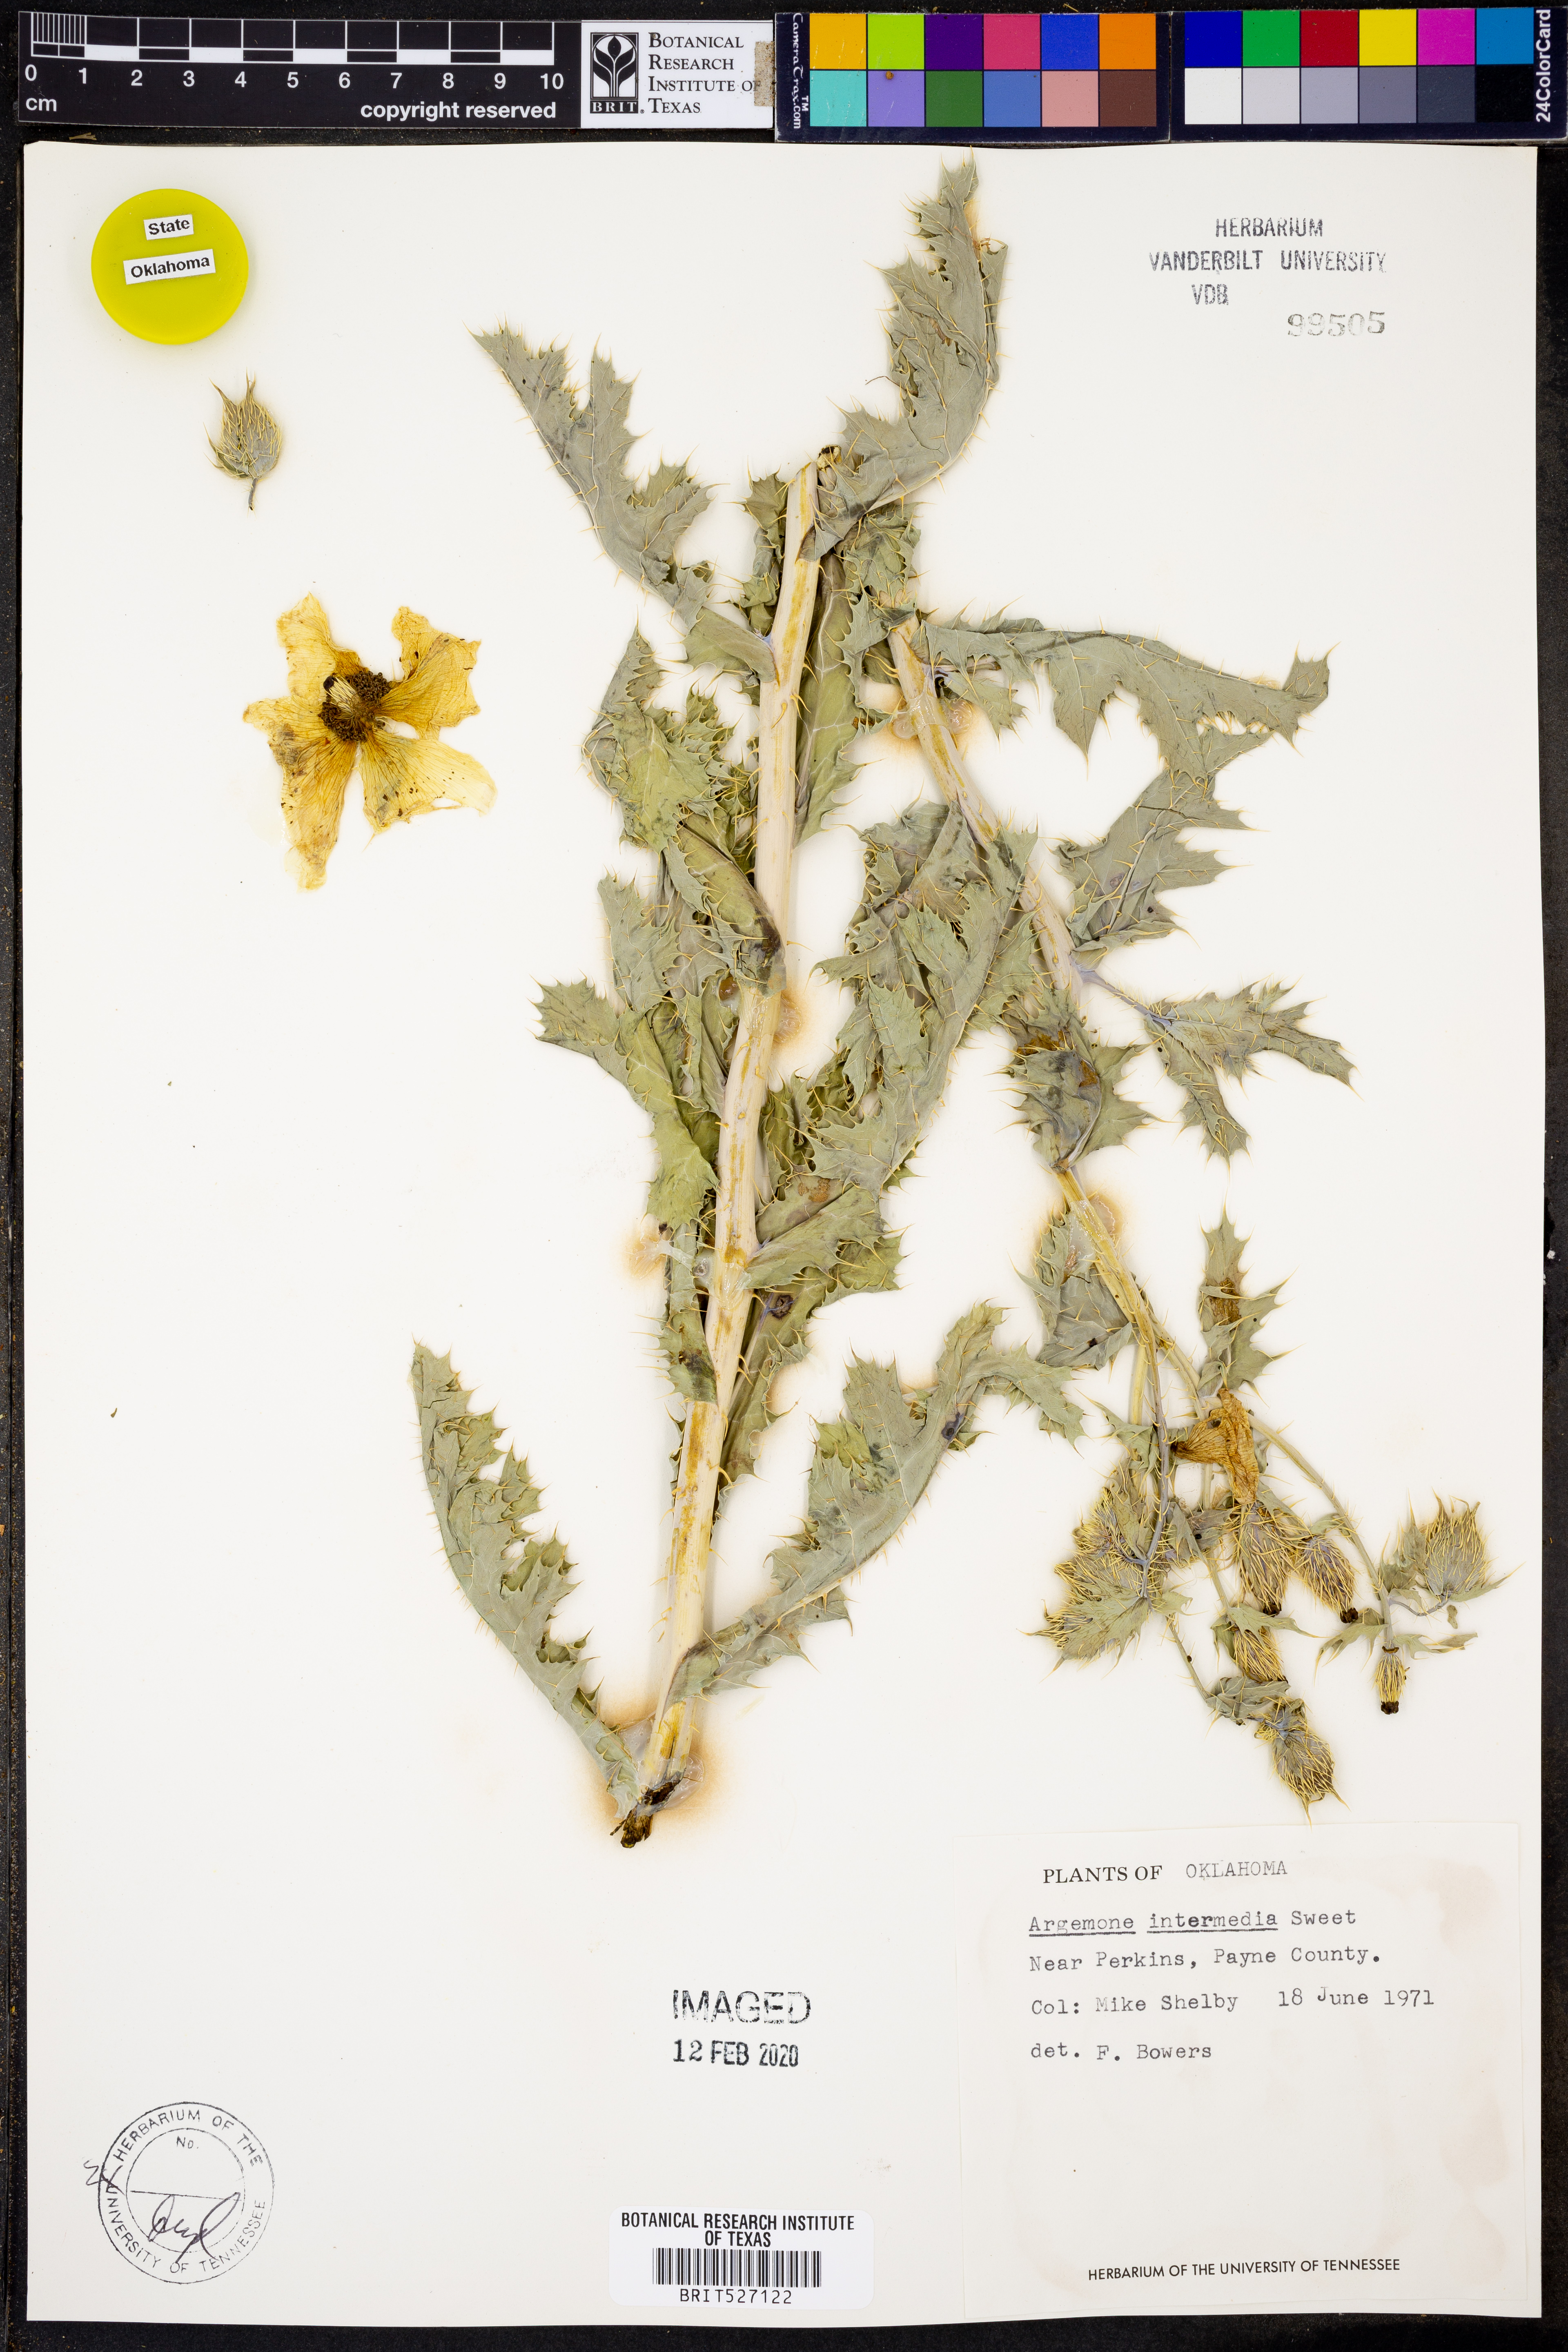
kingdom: Plantae
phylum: Tracheophyta
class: Magnoliopsida
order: Ranunculales
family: Papaveraceae
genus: Argemone
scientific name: Argemone intermedia
